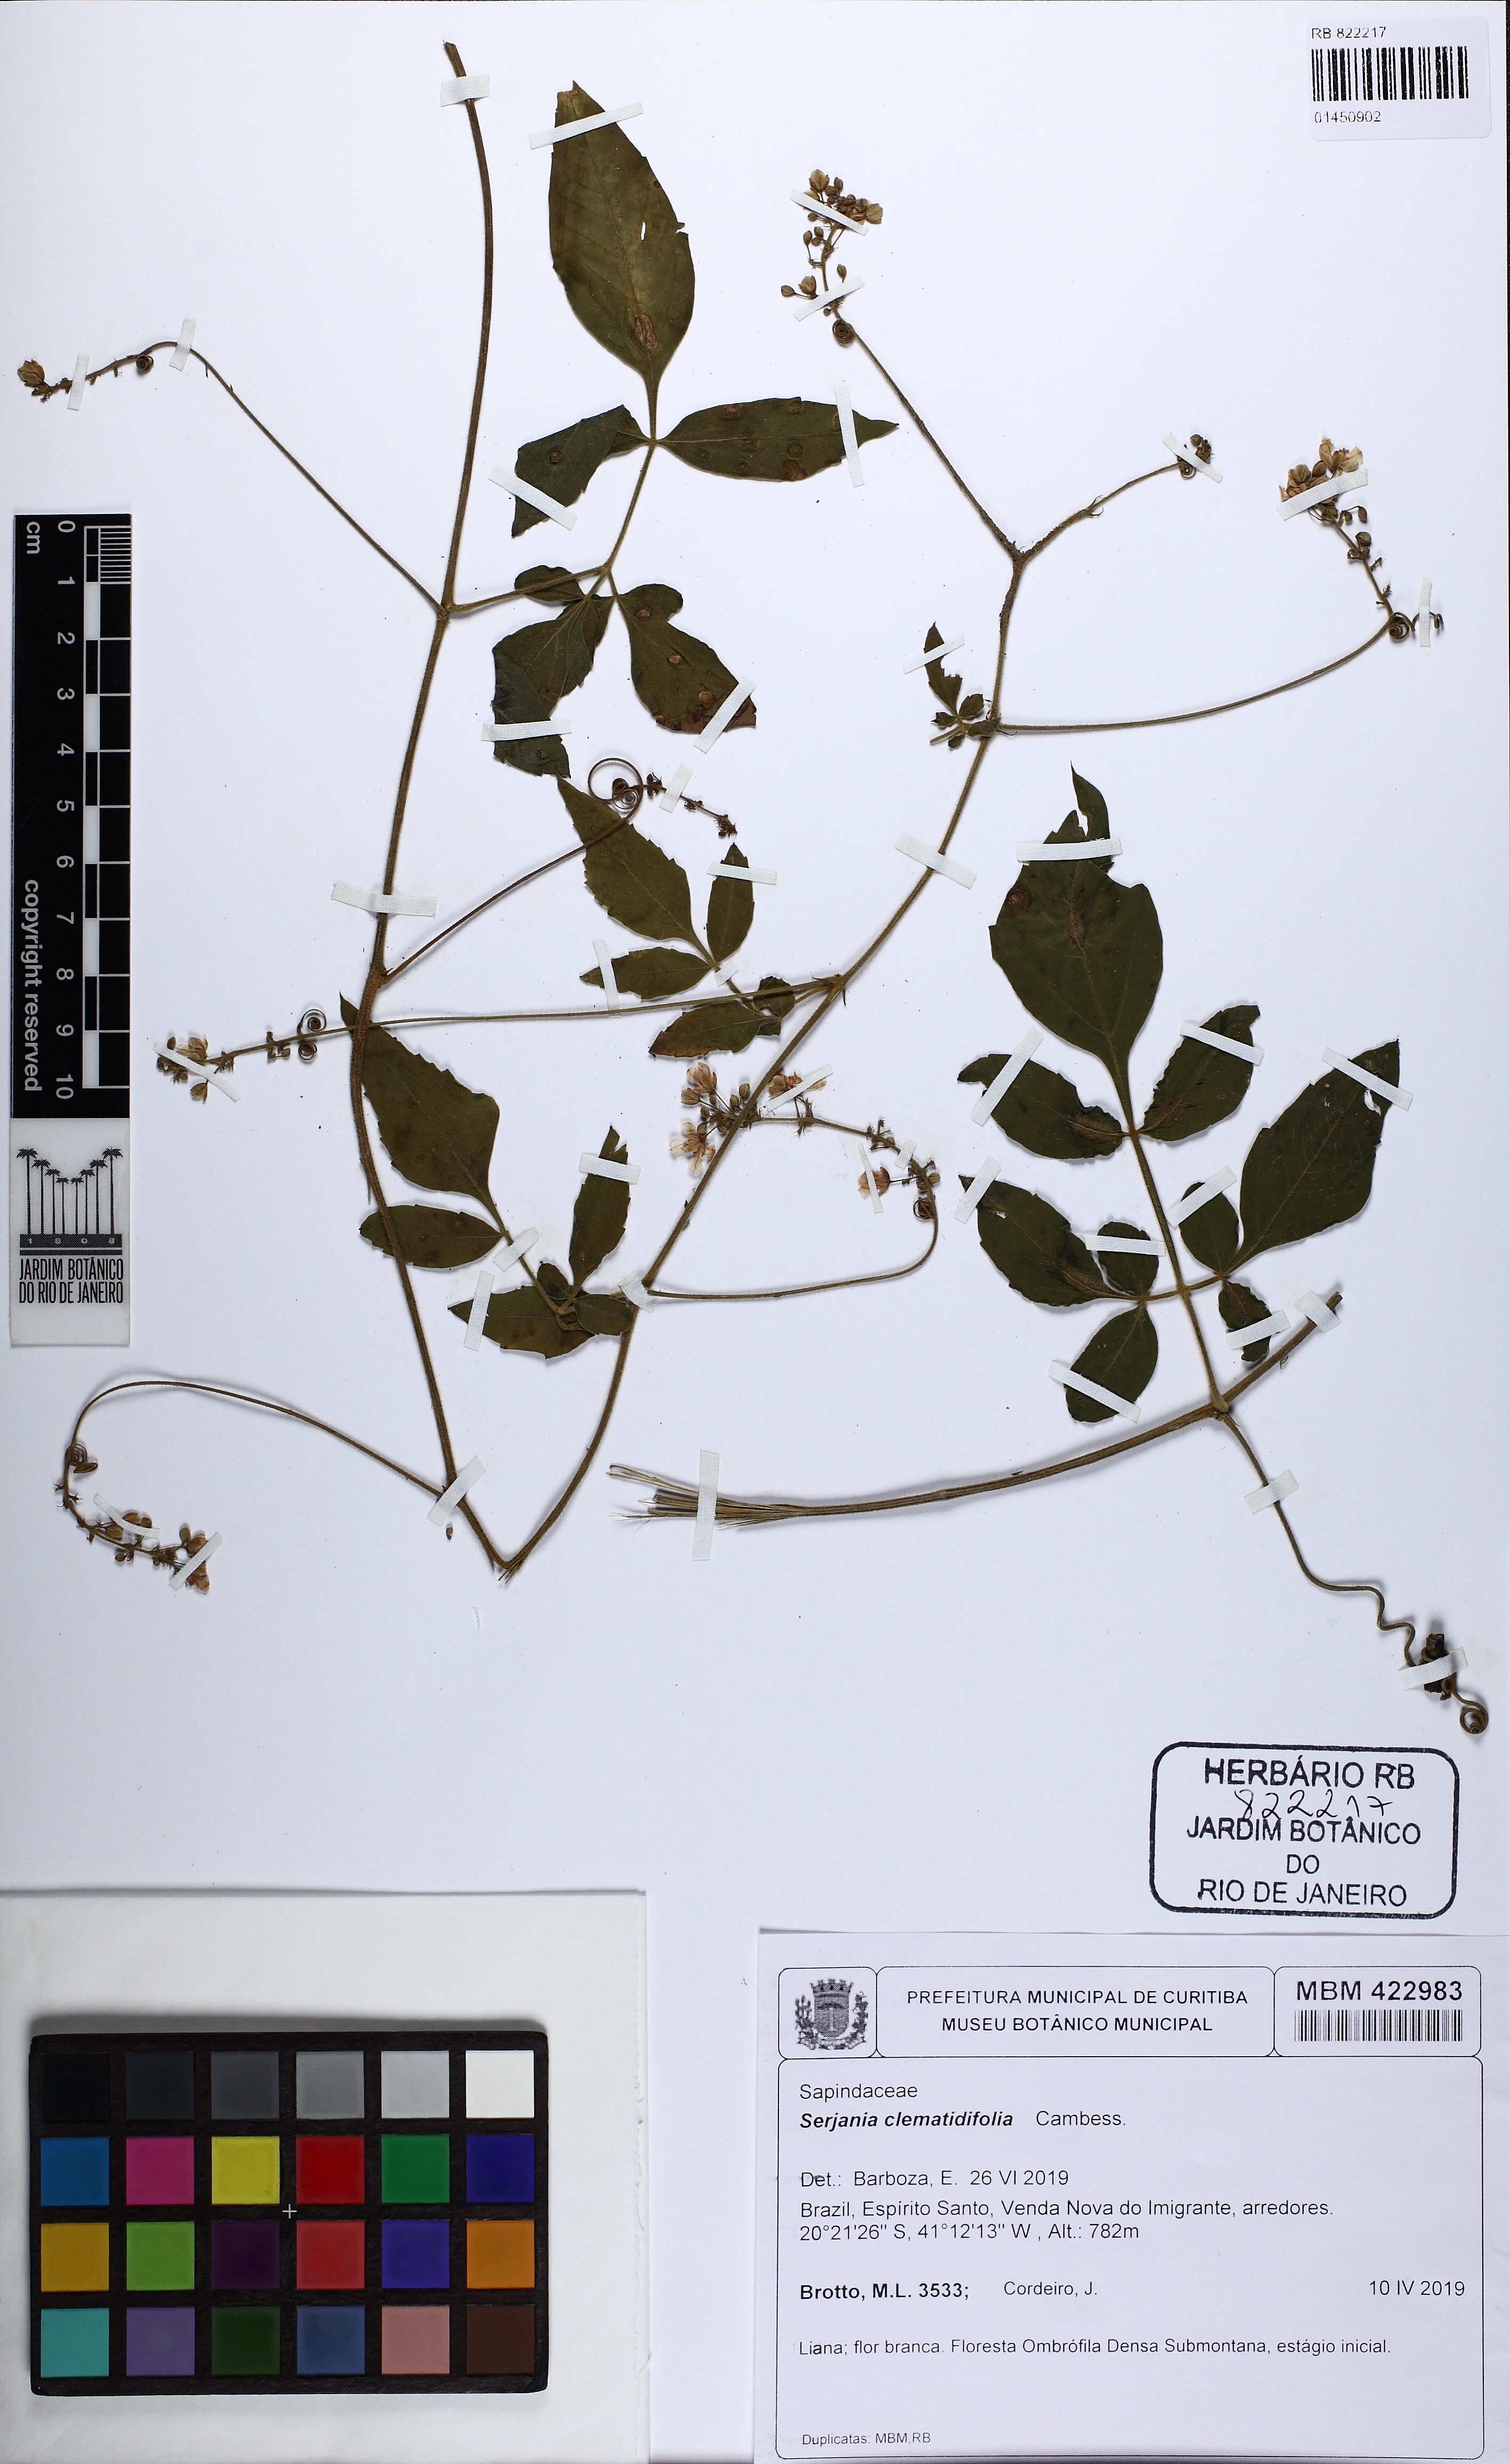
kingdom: Plantae
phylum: Tracheophyta
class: Magnoliopsida
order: Sapindales
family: Sapindaceae
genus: Serjania
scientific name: Serjania clematidifolia
